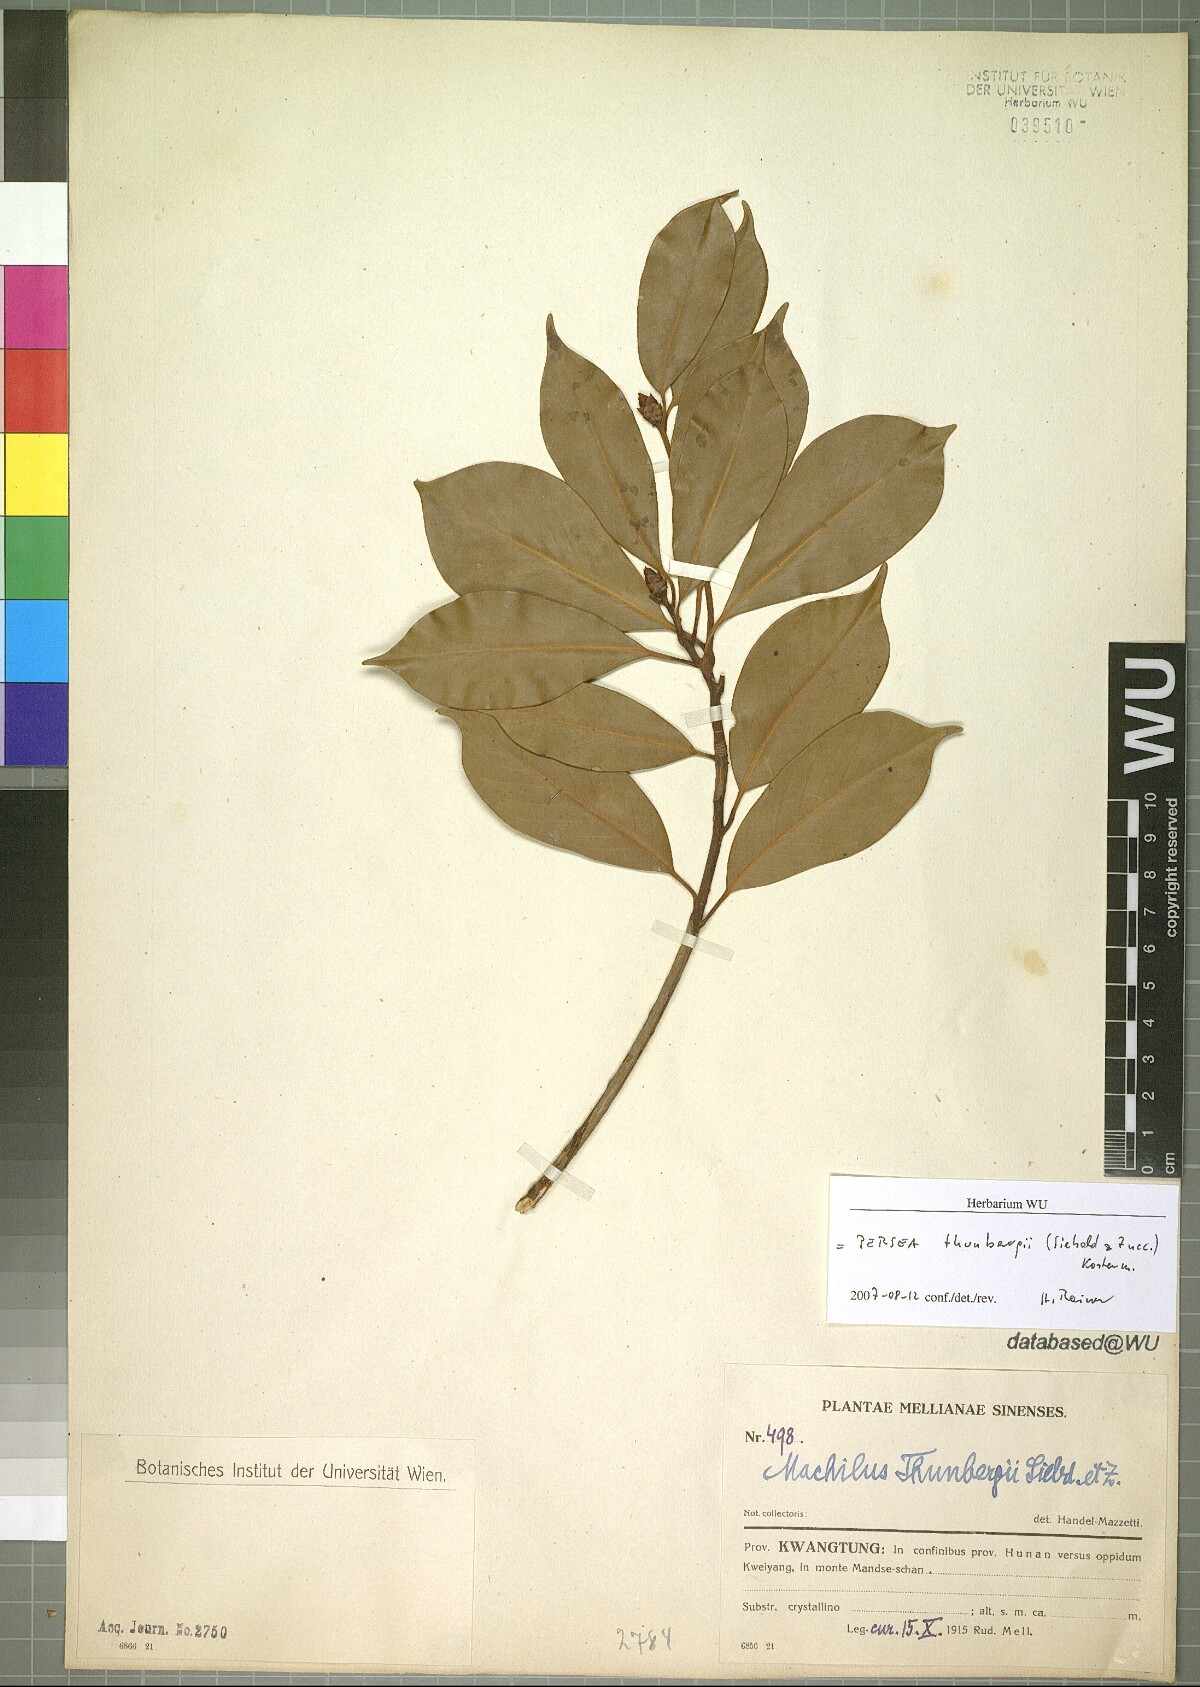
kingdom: Plantae
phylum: Tracheophyta
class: Magnoliopsida
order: Laurales
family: Lauraceae
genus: Machilus
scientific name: Machilus thunbergii
